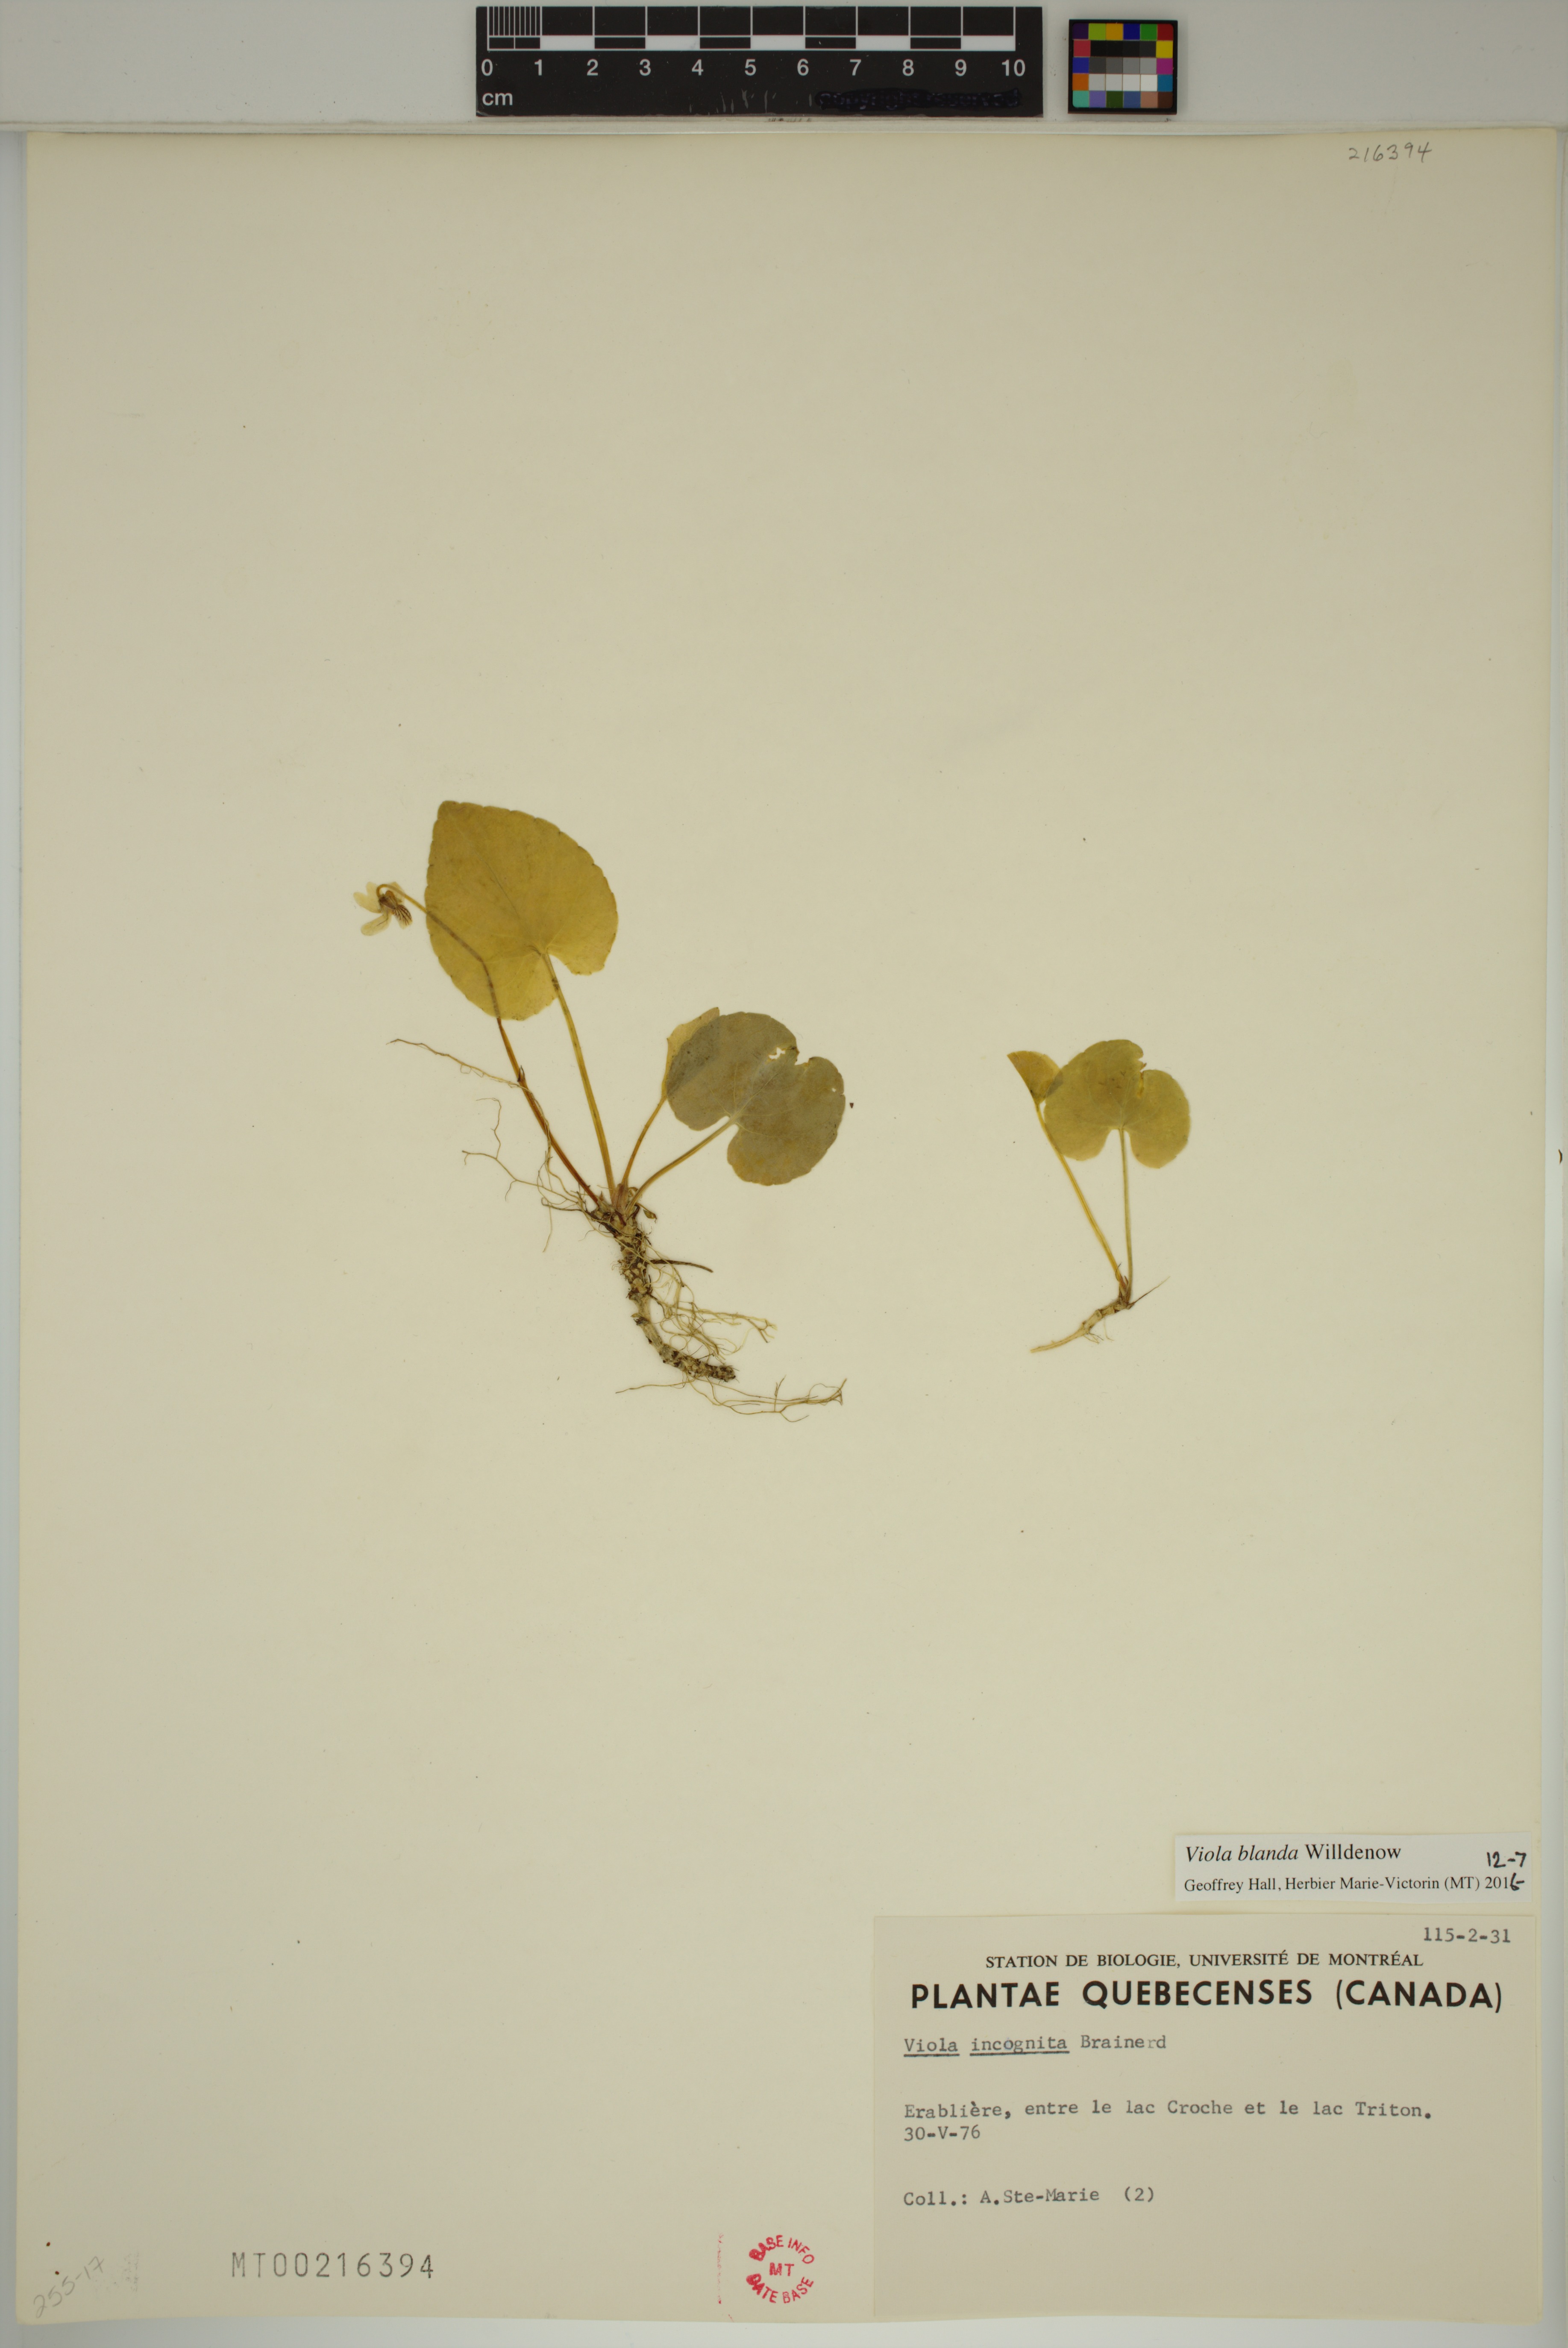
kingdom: Plantae
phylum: Tracheophyta
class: Magnoliopsida
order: Malpighiales
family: Violaceae
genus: Viola
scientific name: Viola blanda
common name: Sweet white violet
